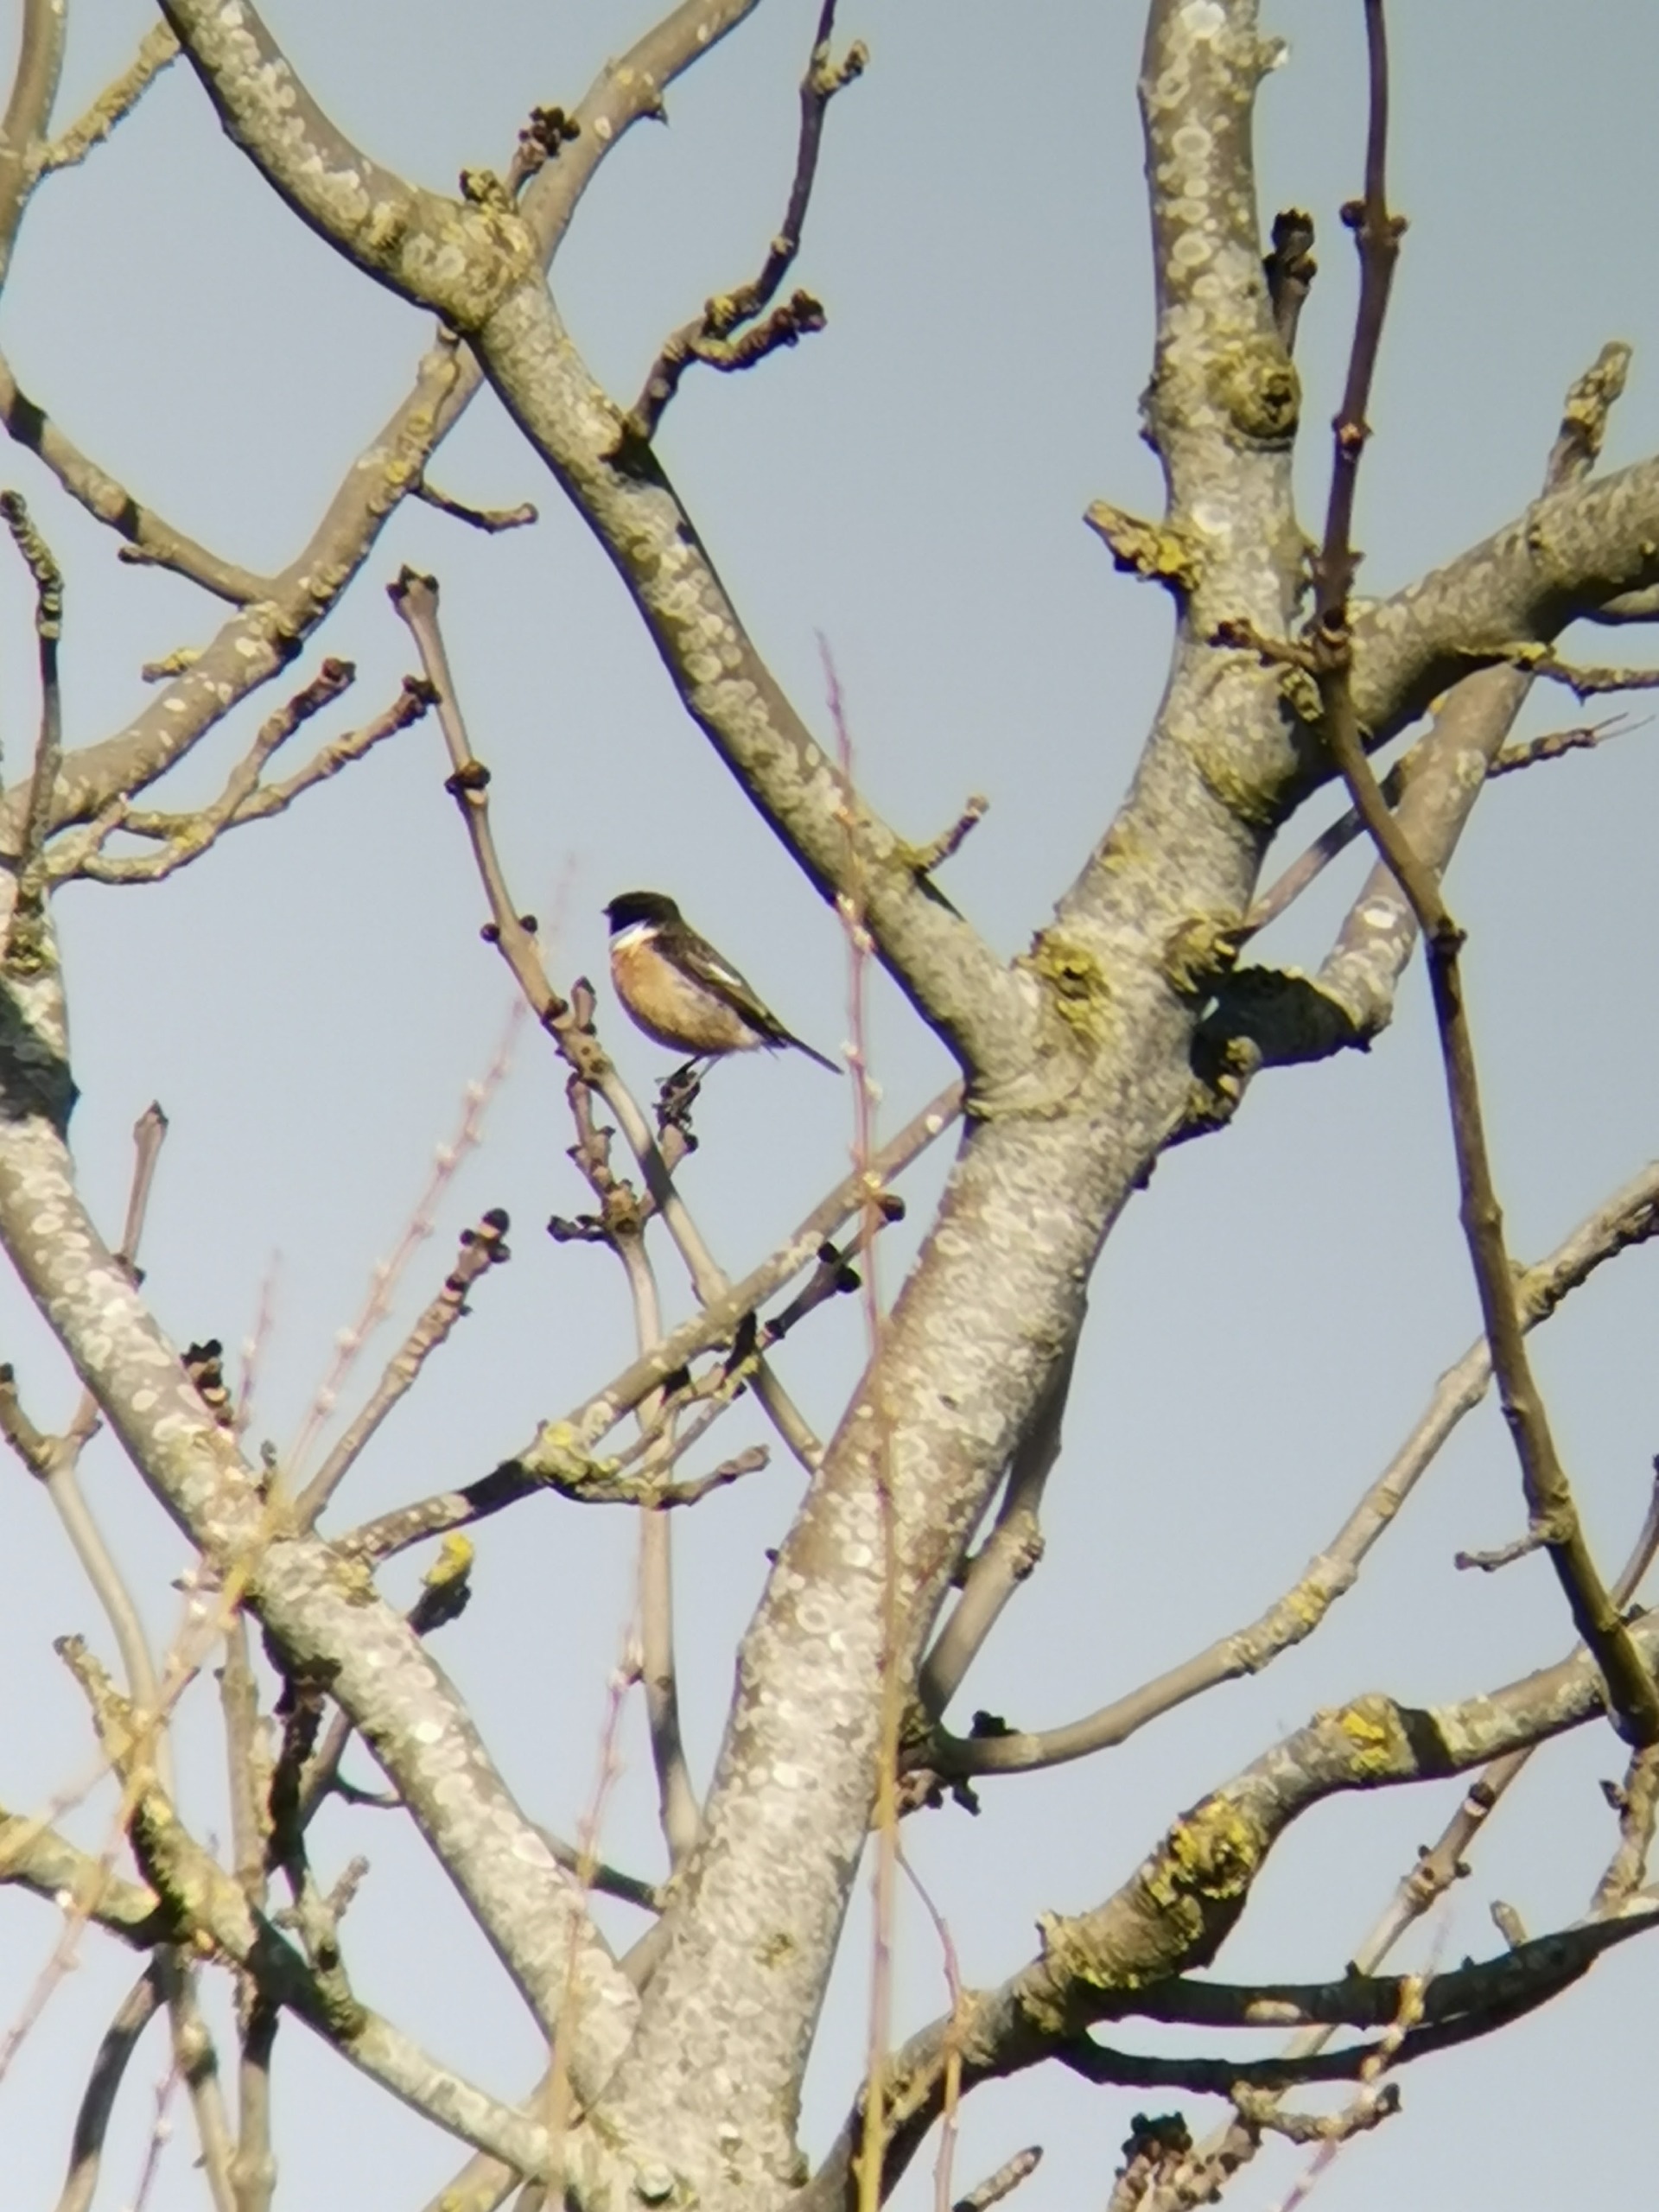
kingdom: Animalia
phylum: Chordata
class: Aves
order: Passeriformes
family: Muscicapidae
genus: Saxicola
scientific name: Saxicola rubicola
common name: Sortstrubet bynkefugl
